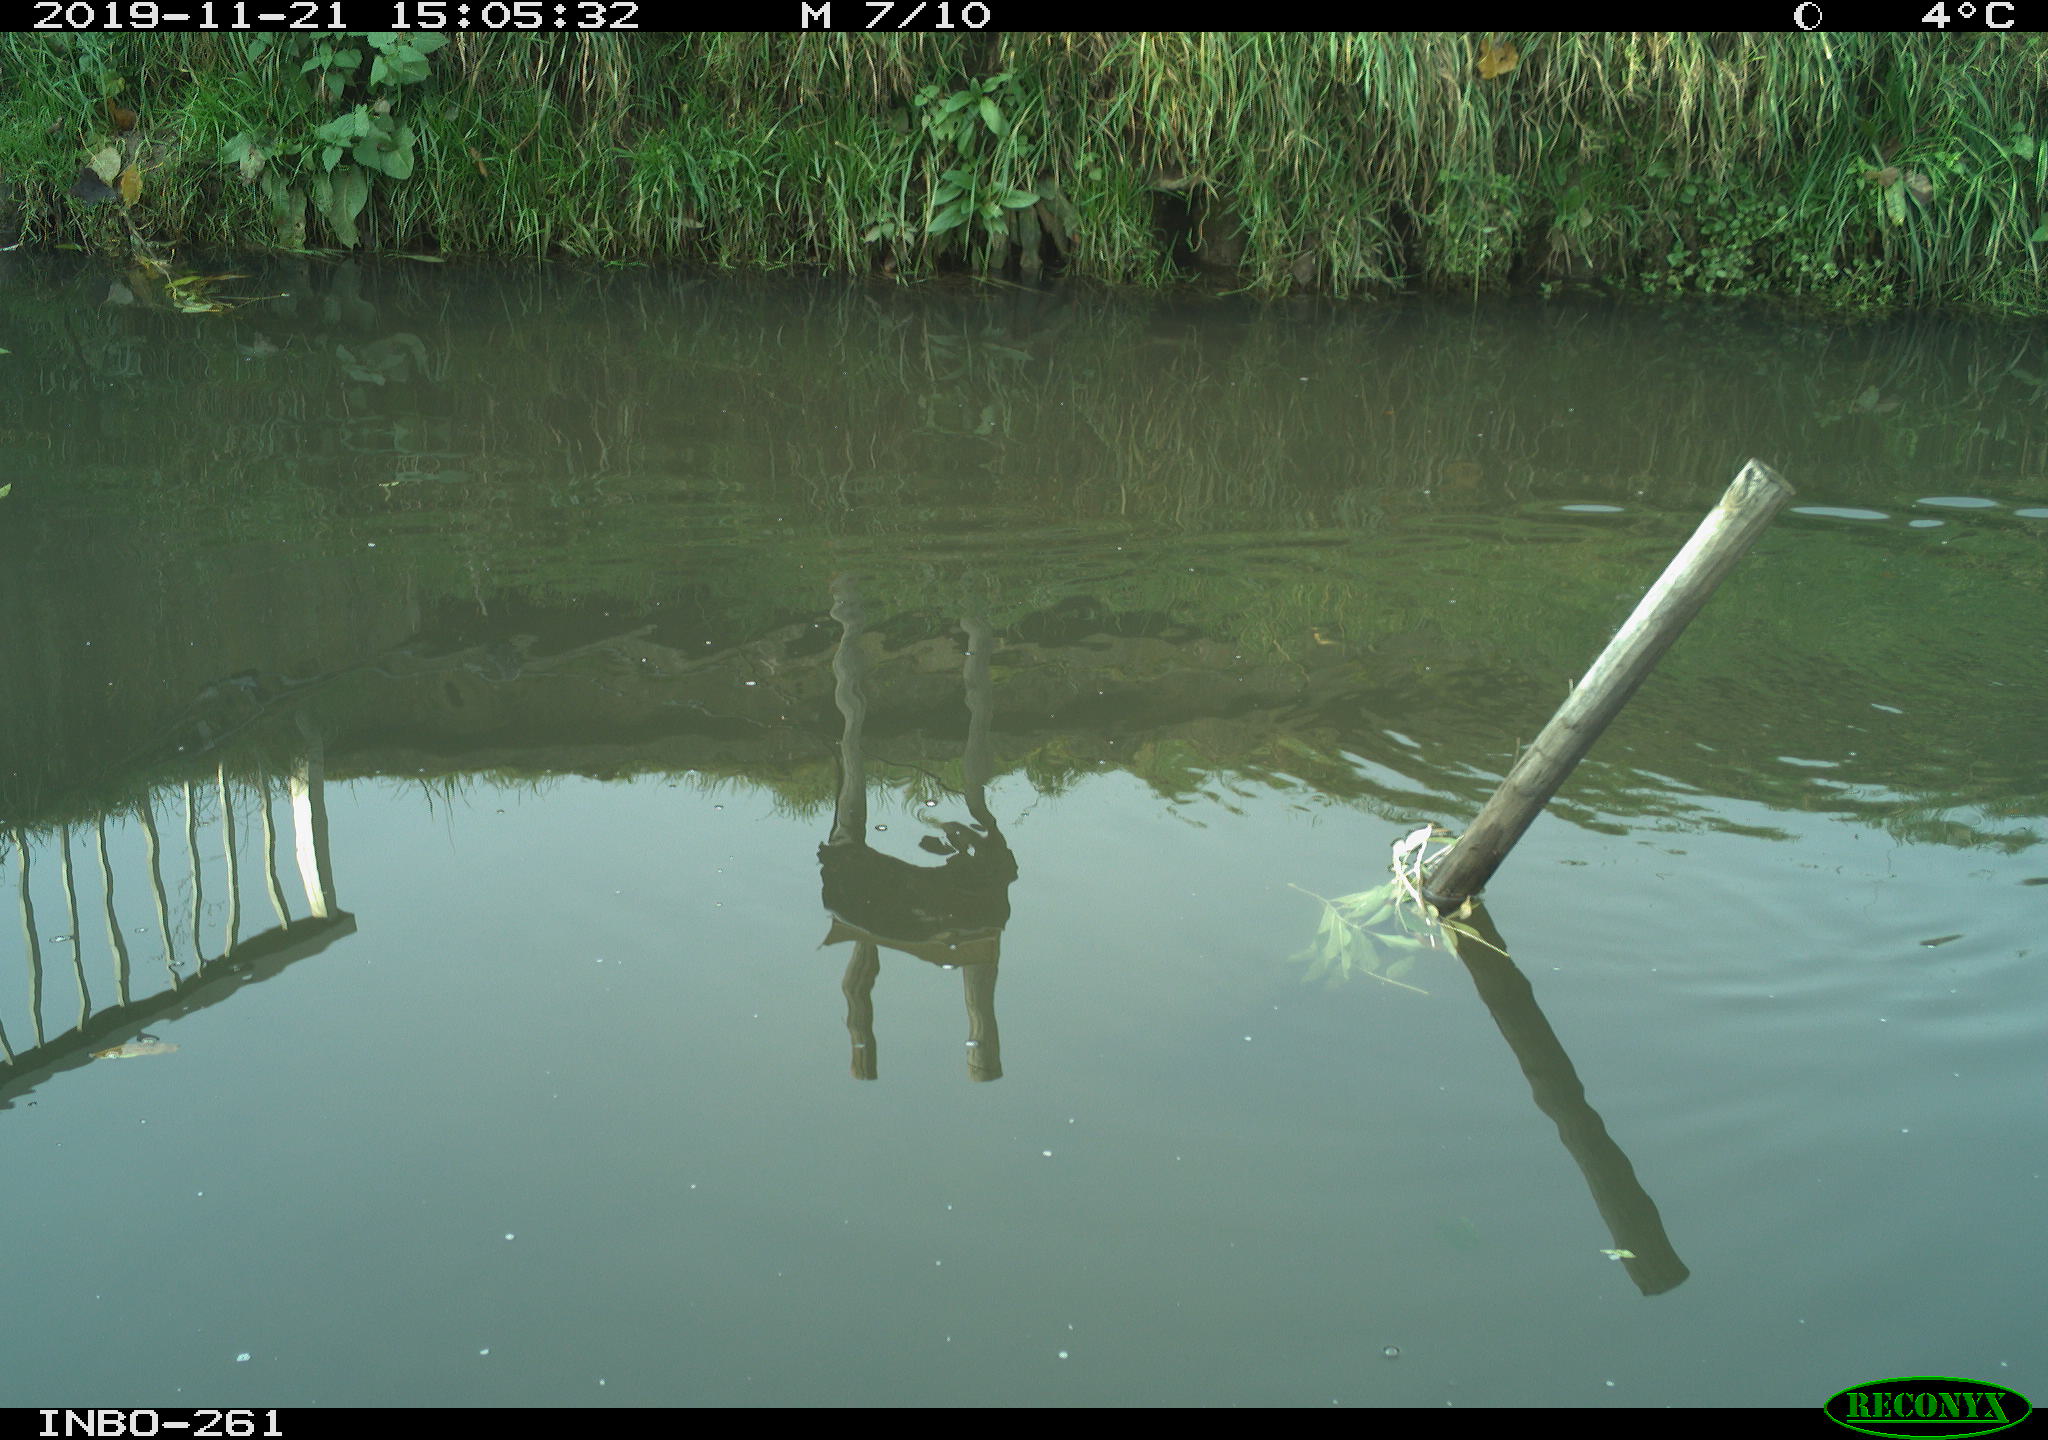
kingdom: Animalia
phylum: Chordata
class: Aves
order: Gruiformes
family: Rallidae
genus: Gallinula
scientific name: Gallinula chloropus
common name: Common moorhen
